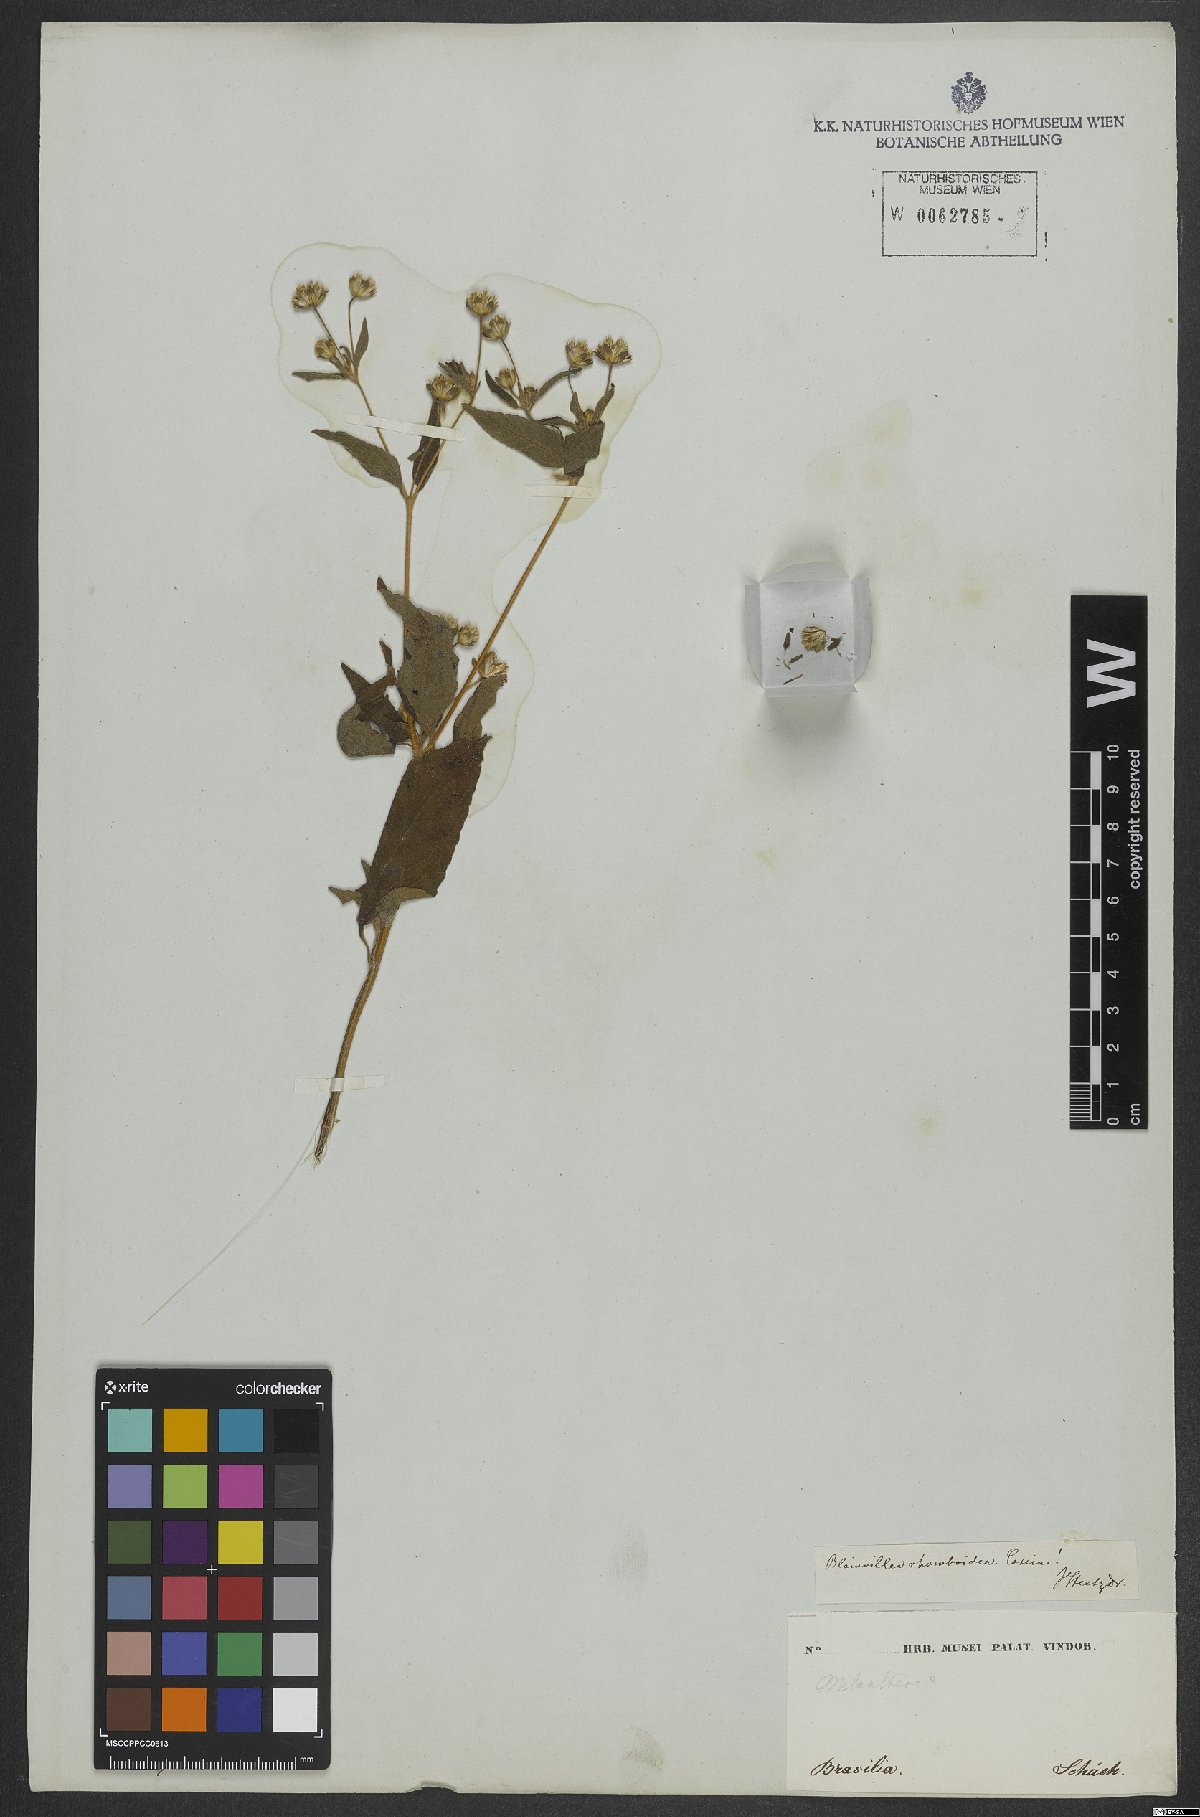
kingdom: Plantae
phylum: Tracheophyta
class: Magnoliopsida
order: Asterales
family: Asteraceae
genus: Blainvillea
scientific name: Blainvillea dichotoma
